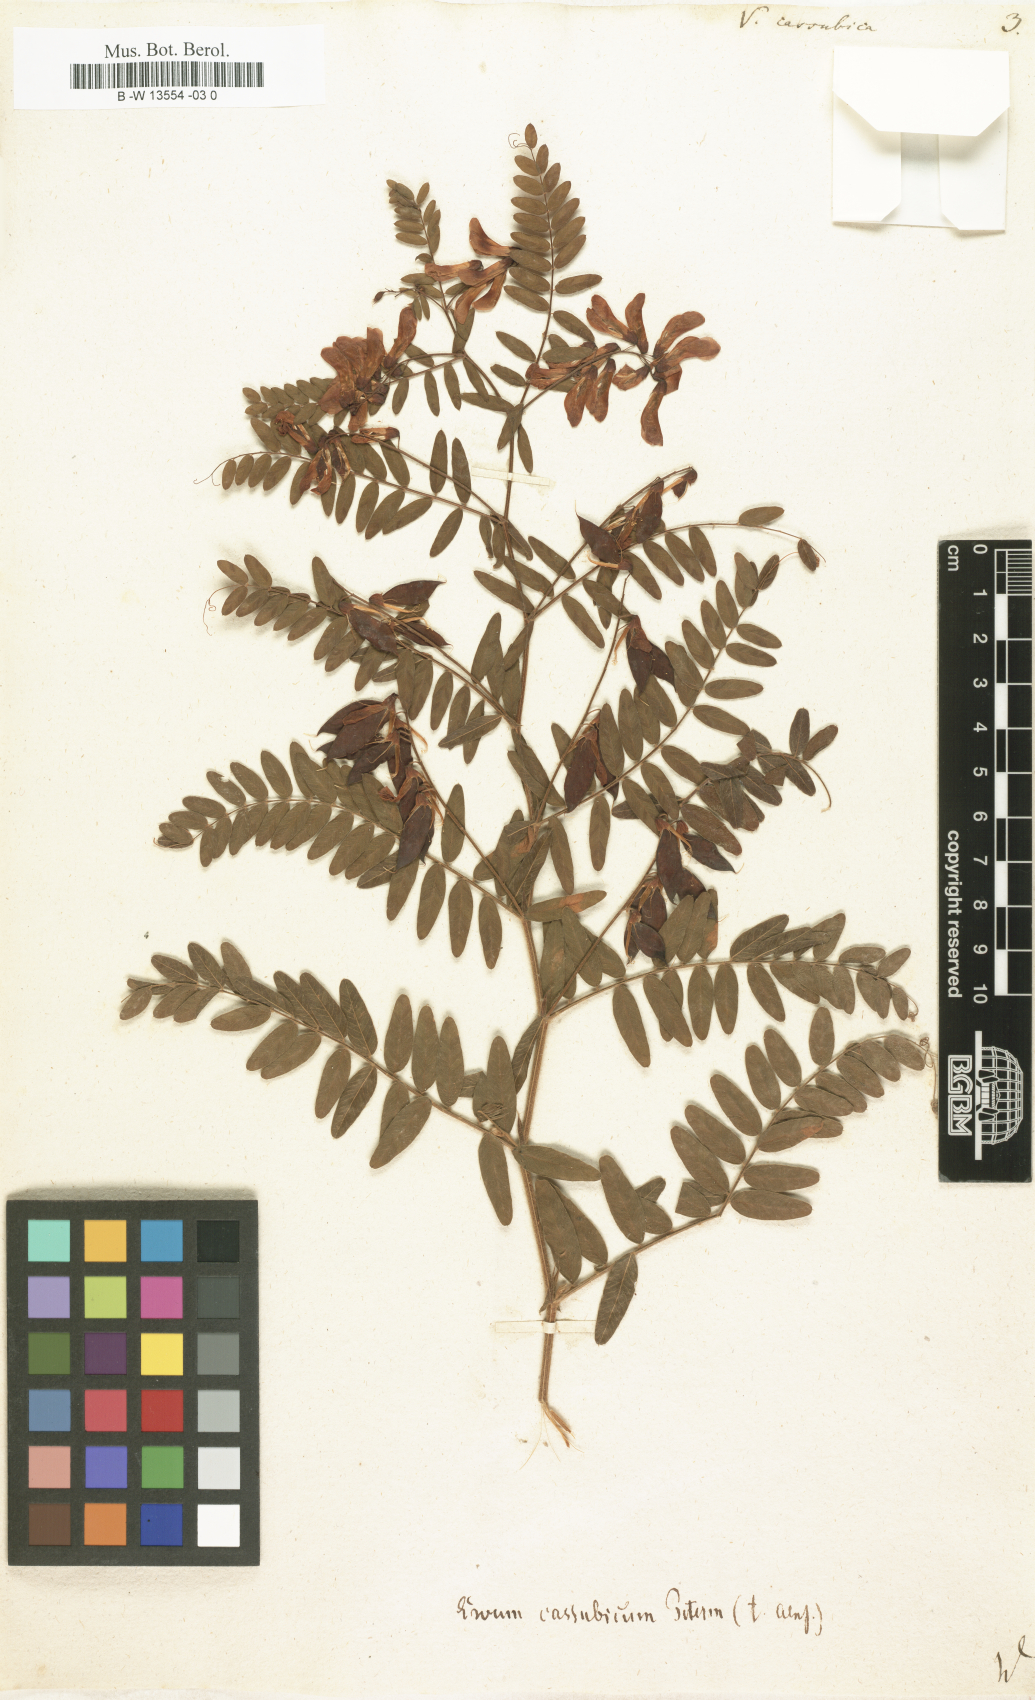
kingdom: Plantae
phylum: Tracheophyta
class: Magnoliopsida
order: Fabales
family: Fabaceae
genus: Vicia
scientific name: Vicia cassubica
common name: Danzig vetch
